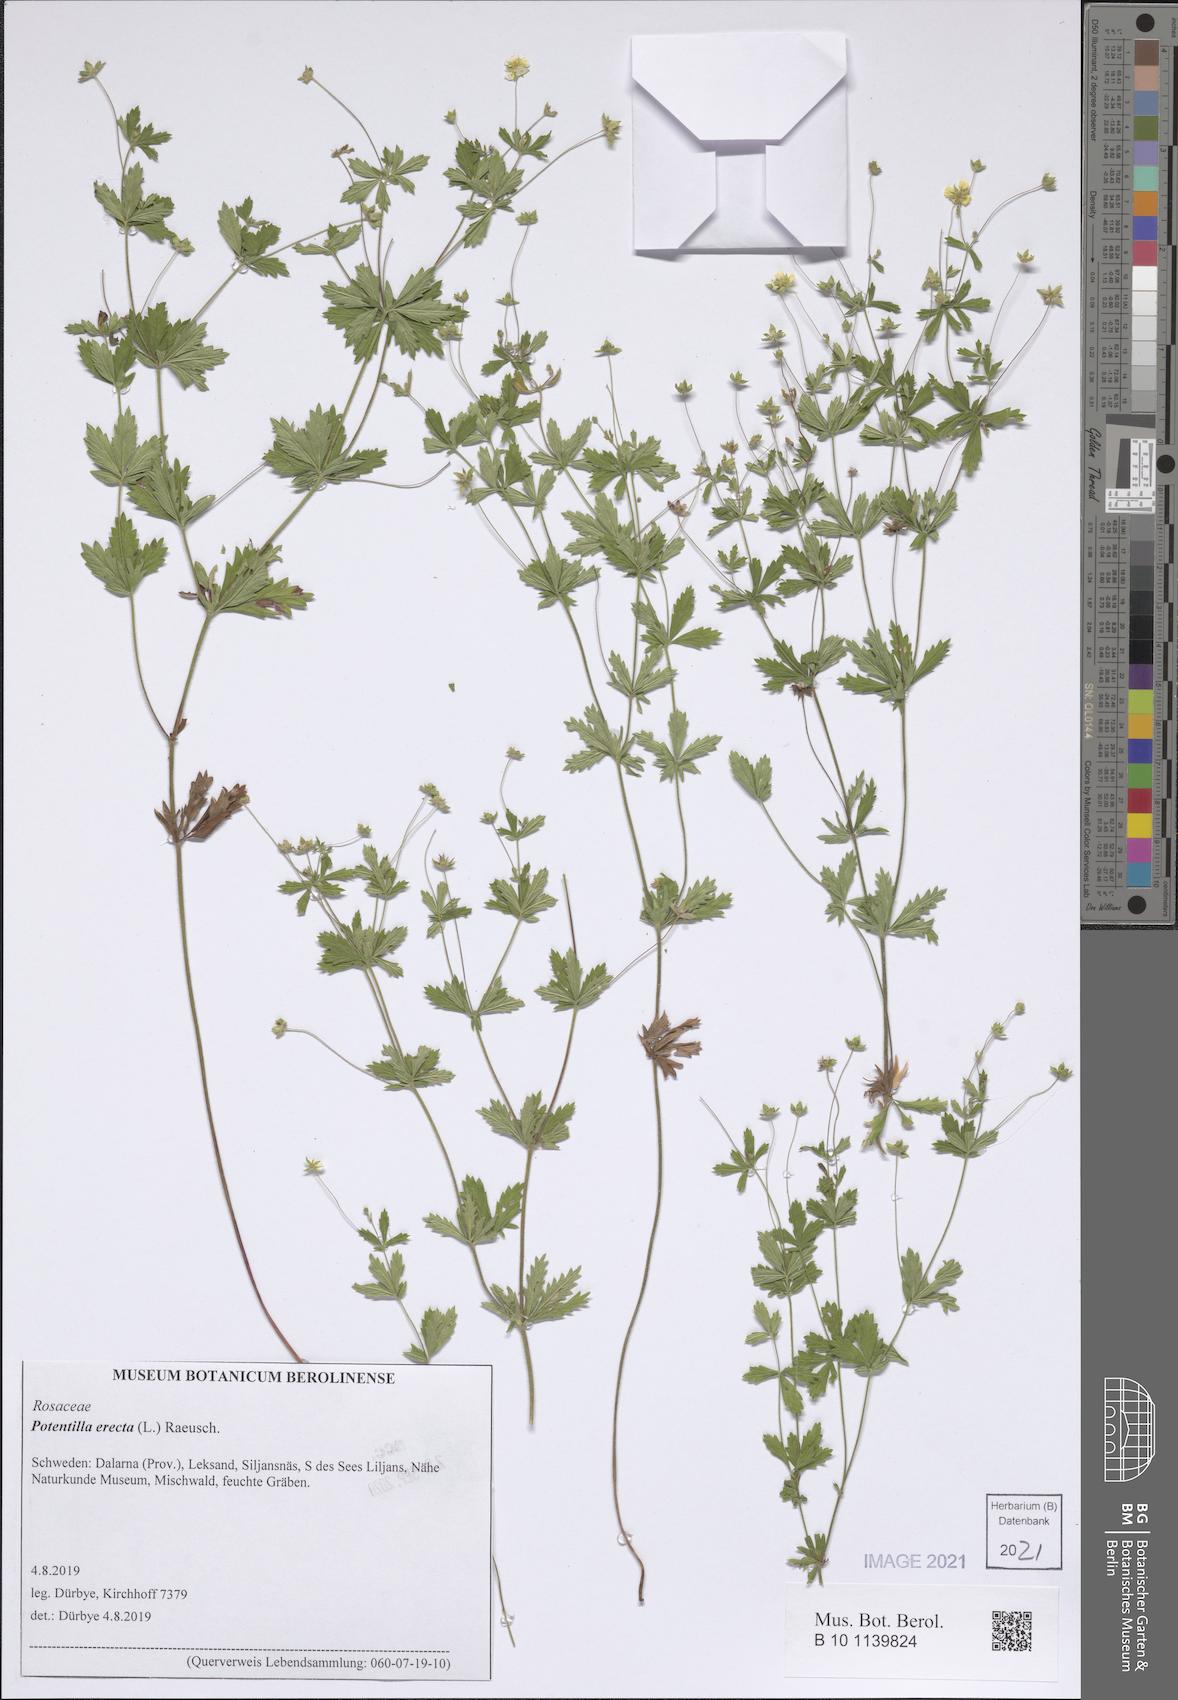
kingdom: Plantae
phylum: Tracheophyta
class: Magnoliopsida
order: Rosales
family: Rosaceae
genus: Potentilla
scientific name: Potentilla erecta
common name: Tormentil
